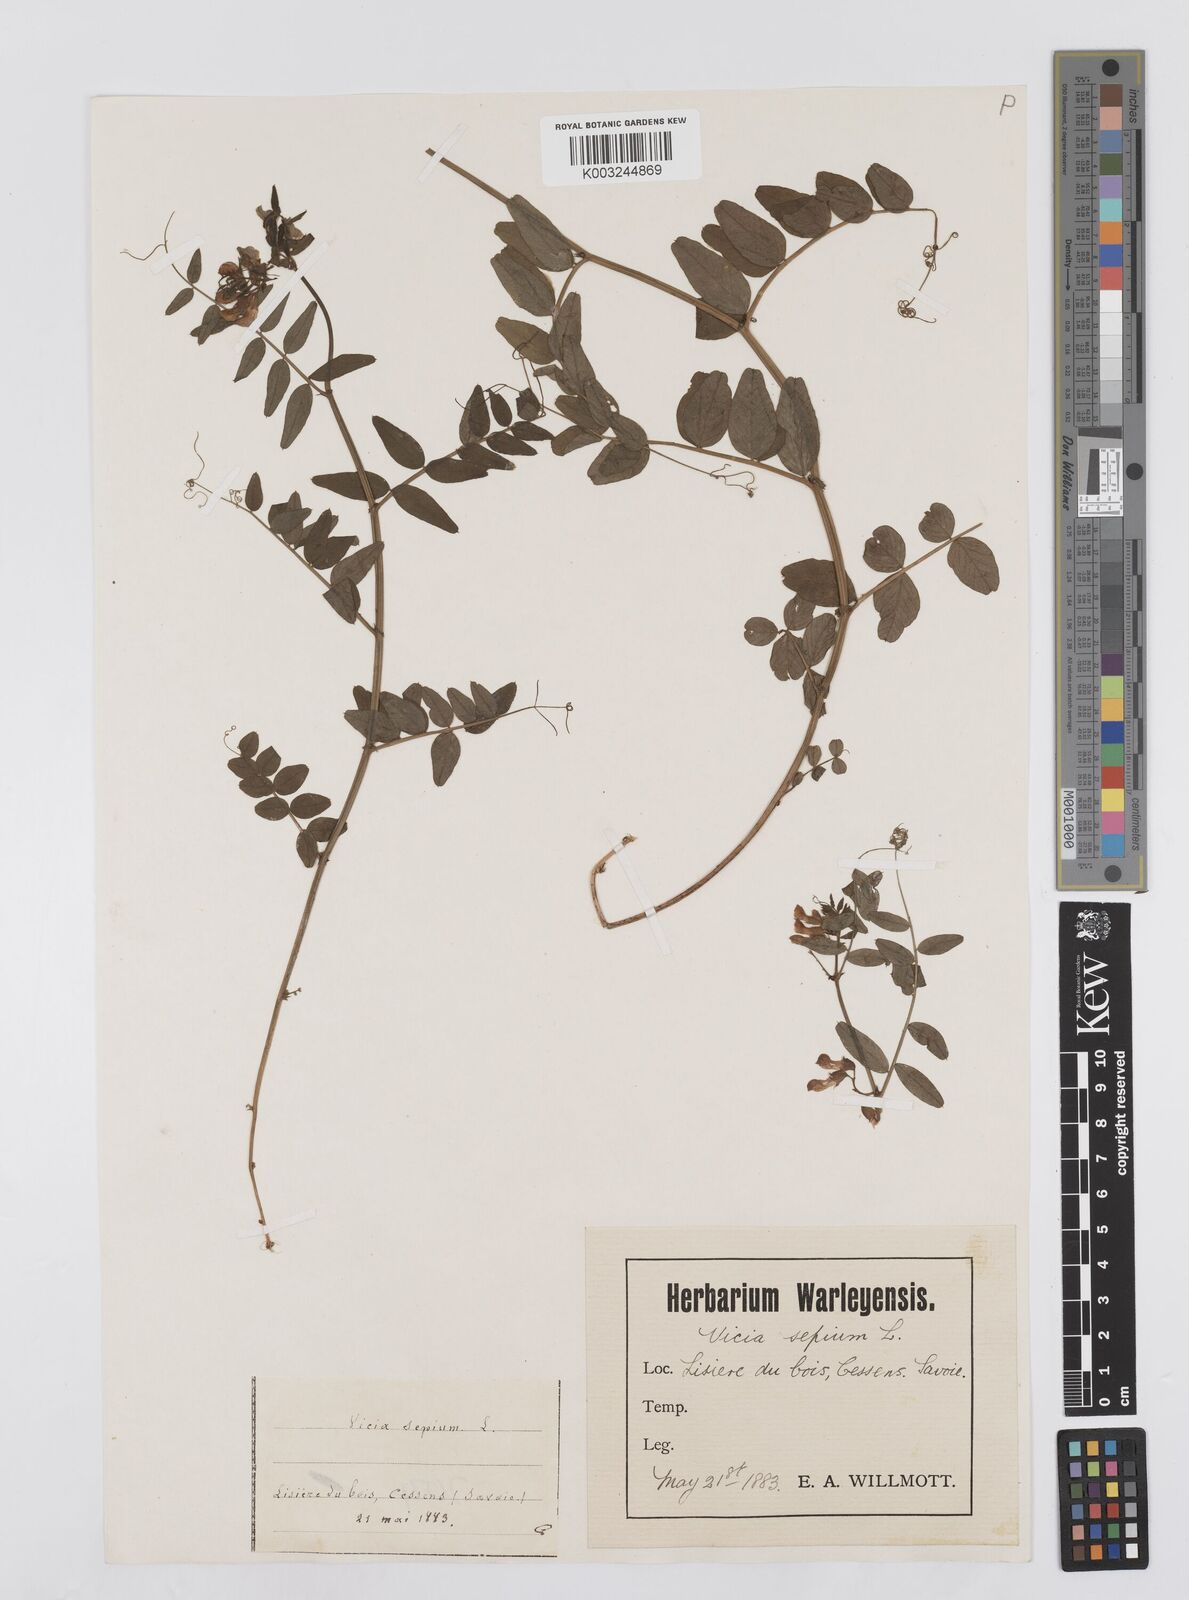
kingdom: Plantae
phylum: Tracheophyta
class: Magnoliopsida
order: Fabales
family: Fabaceae
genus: Vicia
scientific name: Vicia sepium
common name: Bush vetch
